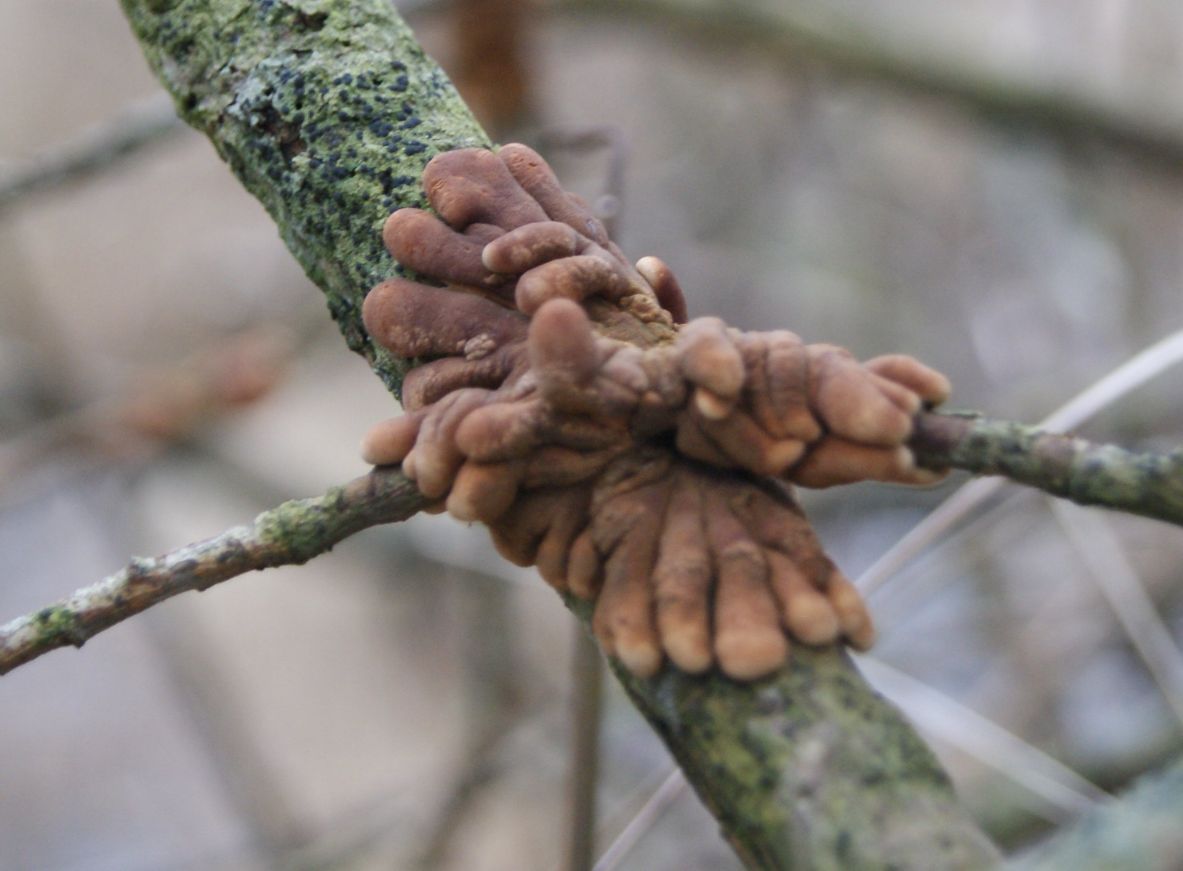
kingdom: Fungi
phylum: Ascomycota
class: Sordariomycetes
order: Hypocreales
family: Hypocreaceae
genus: Hypocreopsis
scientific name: Hypocreopsis lichenoides
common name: pilfinger
